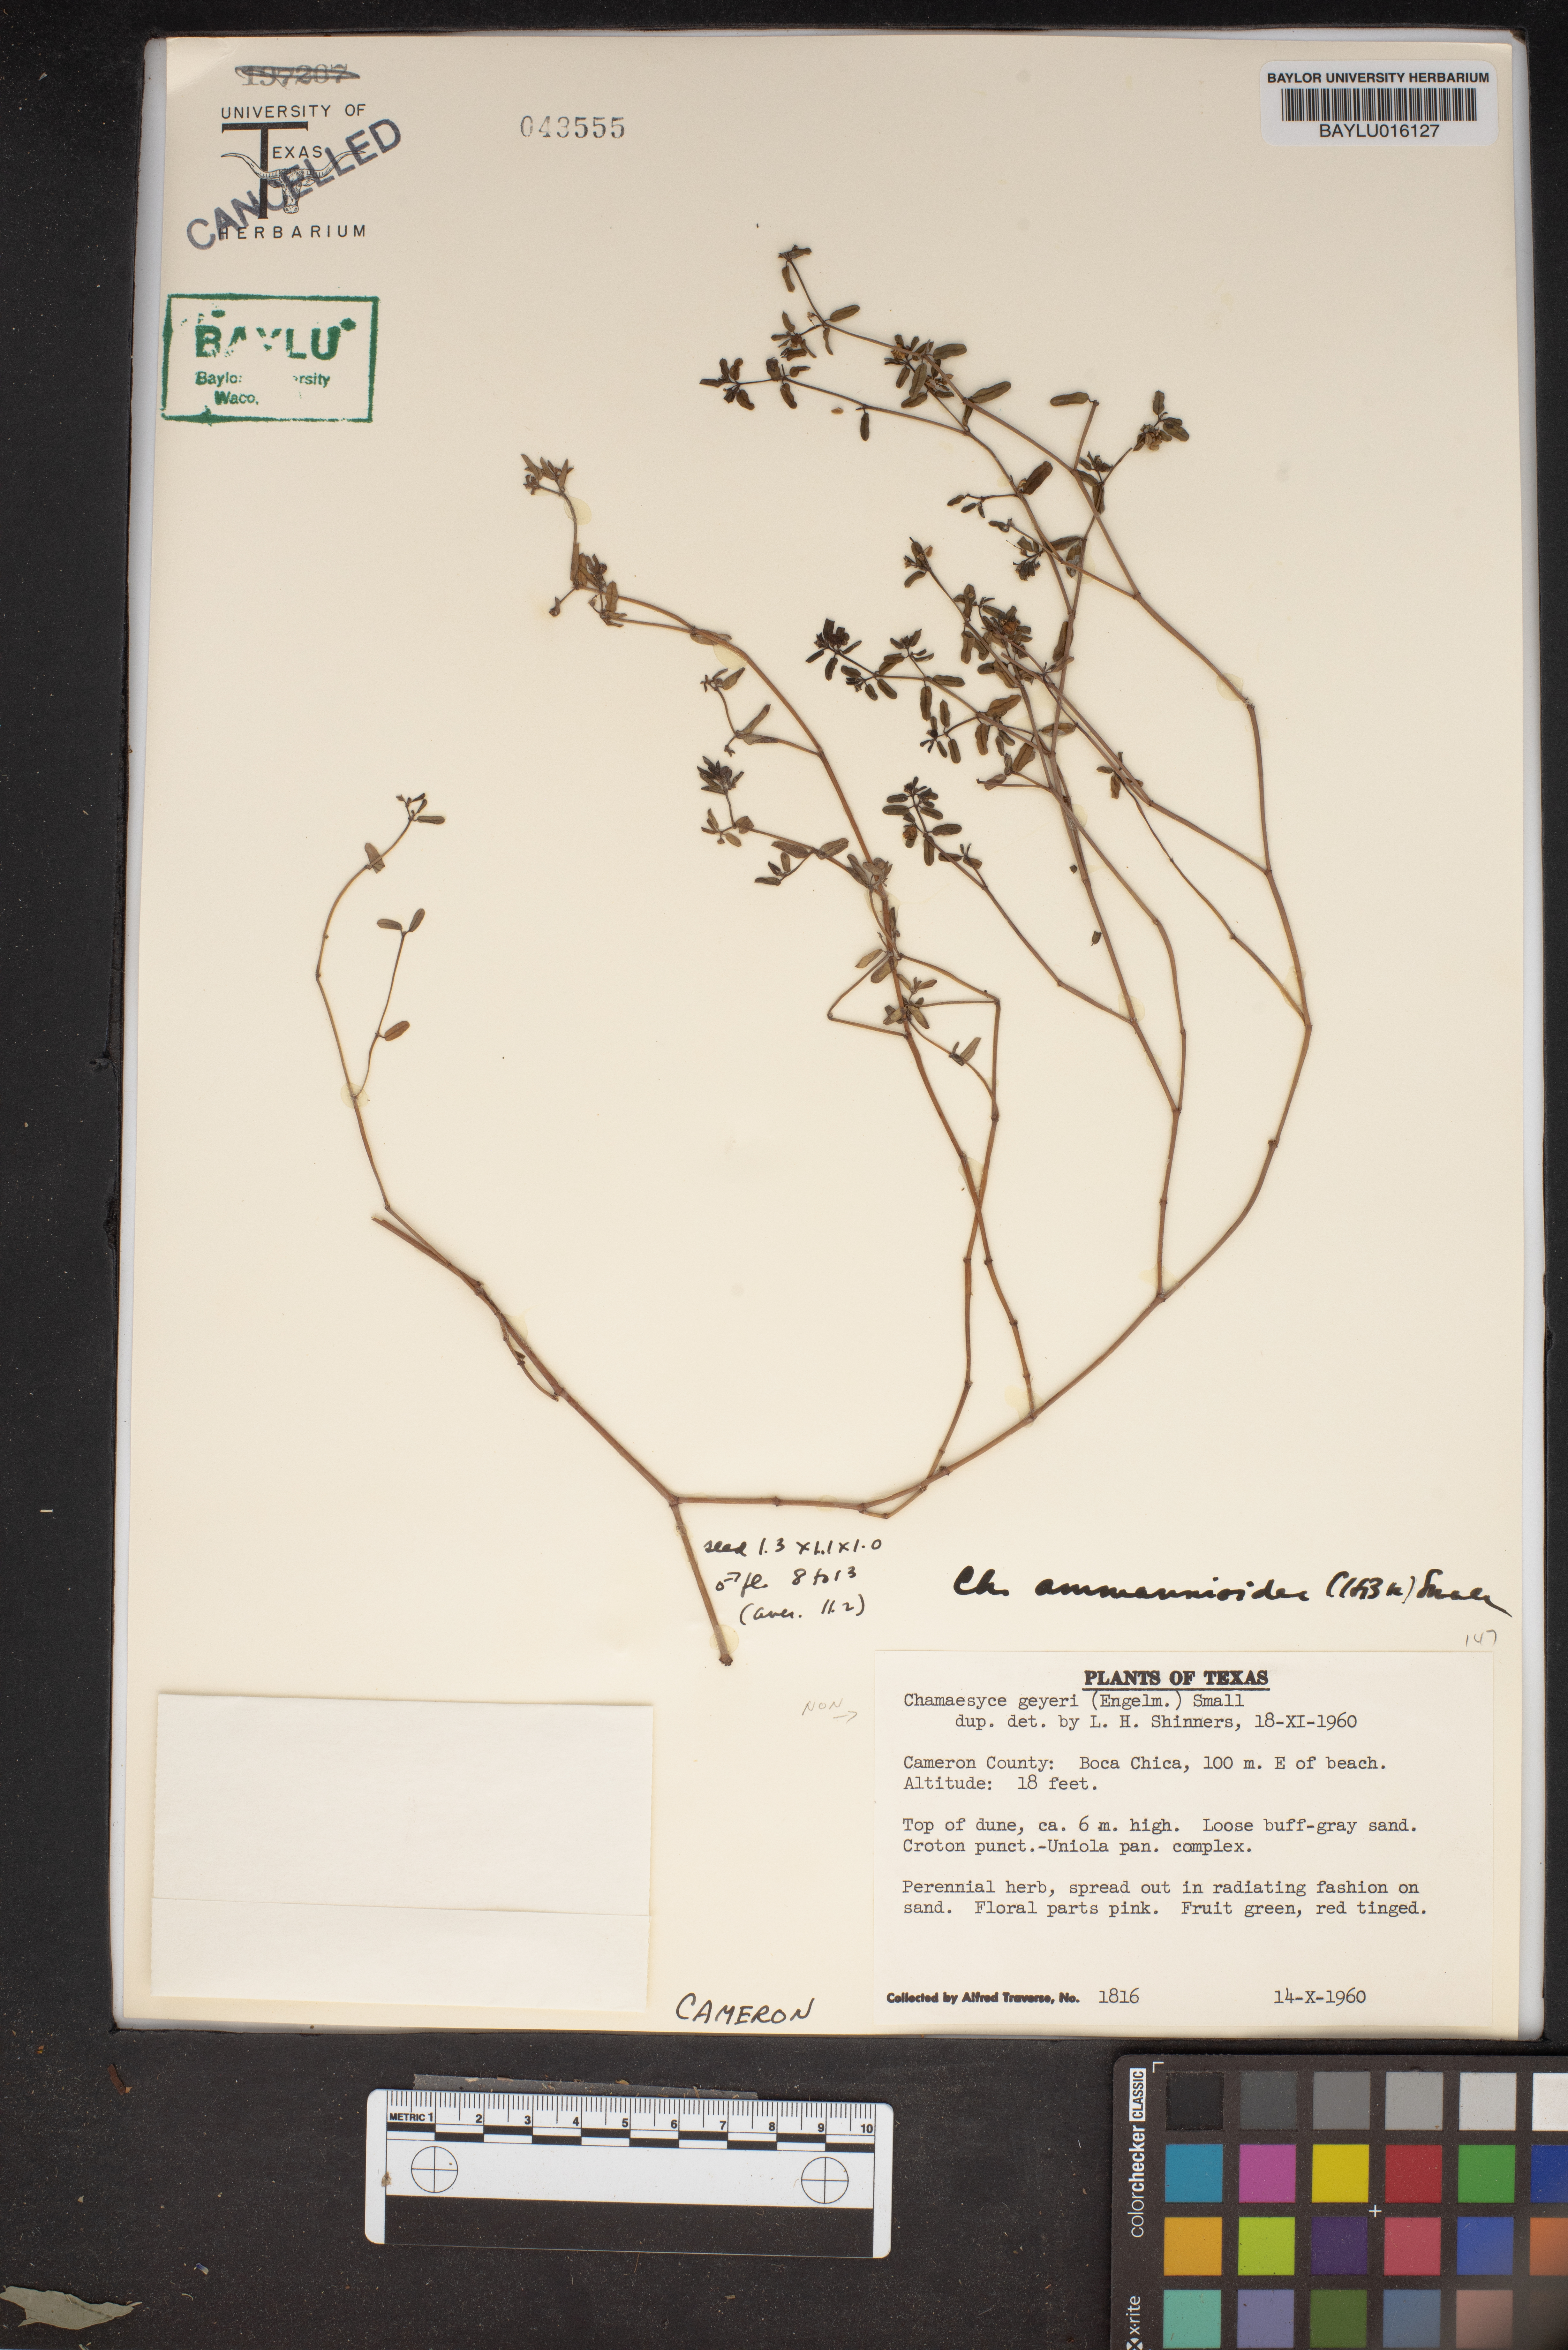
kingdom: Plantae
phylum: Tracheophyta
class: Magnoliopsida
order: Malpighiales
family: Euphorbiaceae
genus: Euphorbia
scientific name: Euphorbia geyeri
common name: Geyer's spurge
